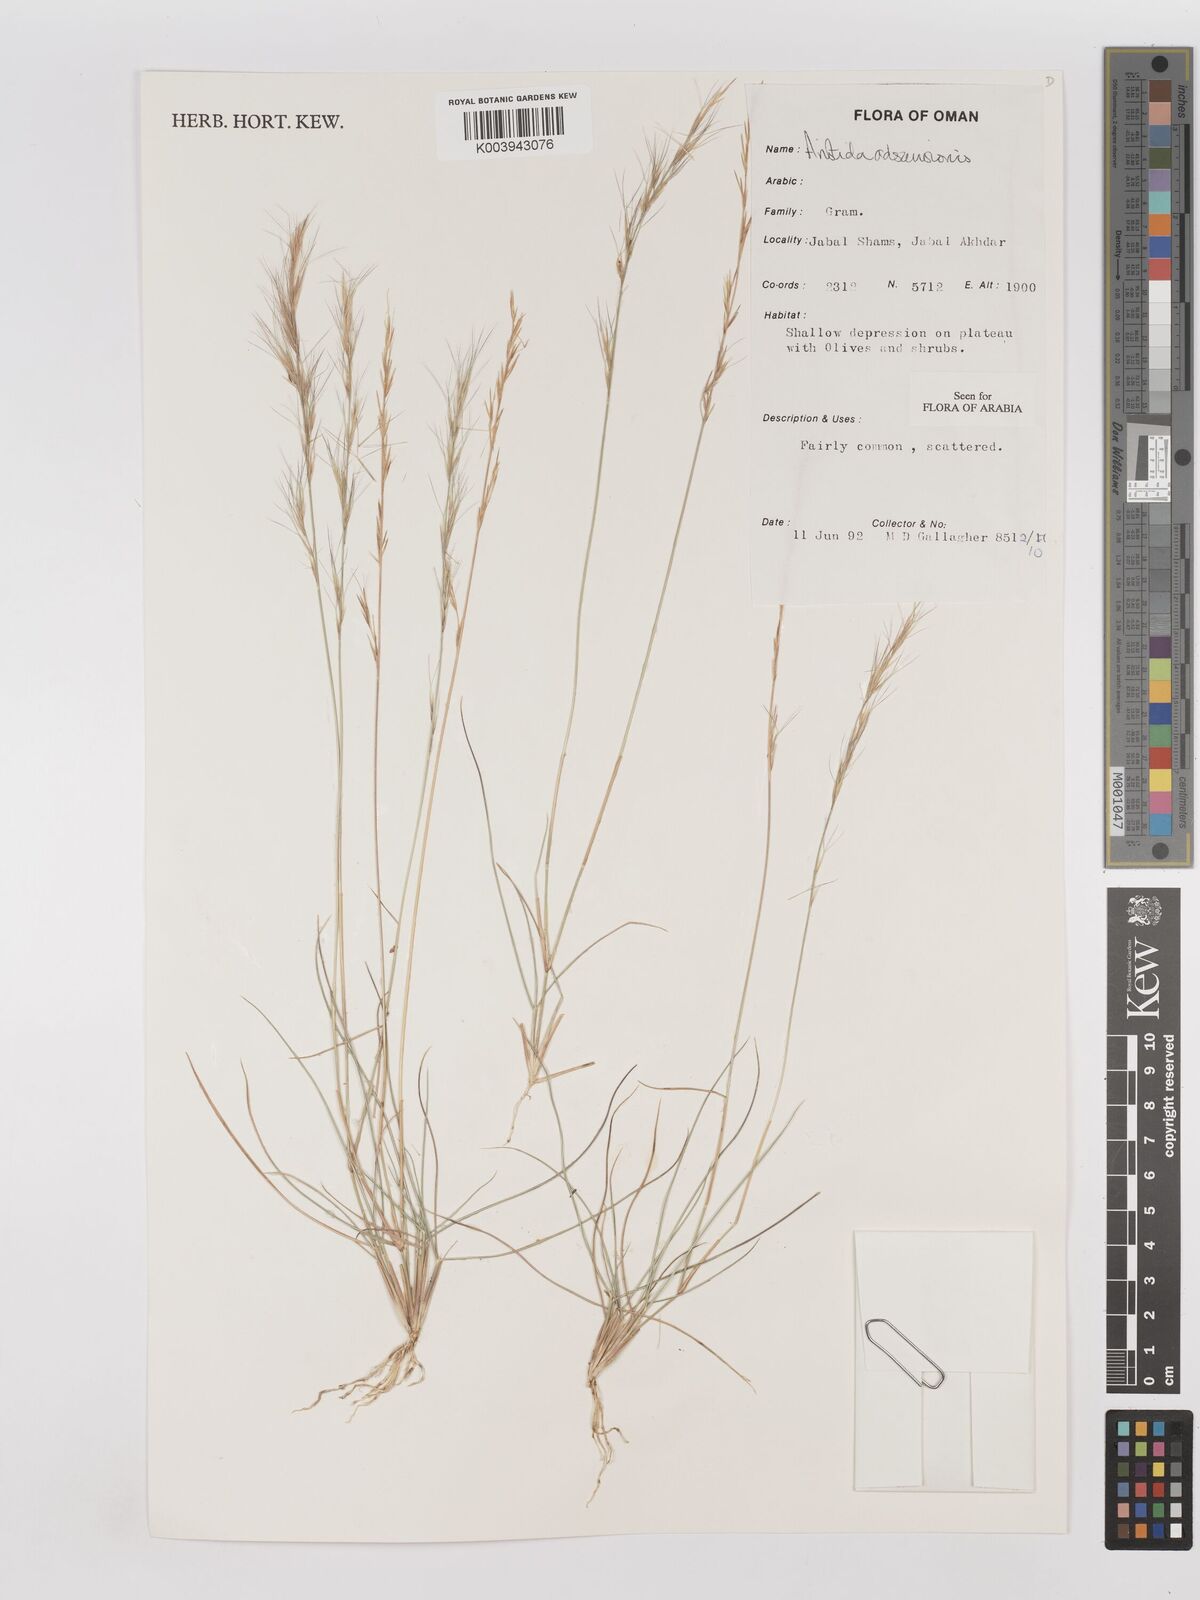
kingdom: Plantae
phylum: Tracheophyta
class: Liliopsida
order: Poales
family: Poaceae
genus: Aristida
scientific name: Aristida adscensionis
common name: Sixweeks threeawn
